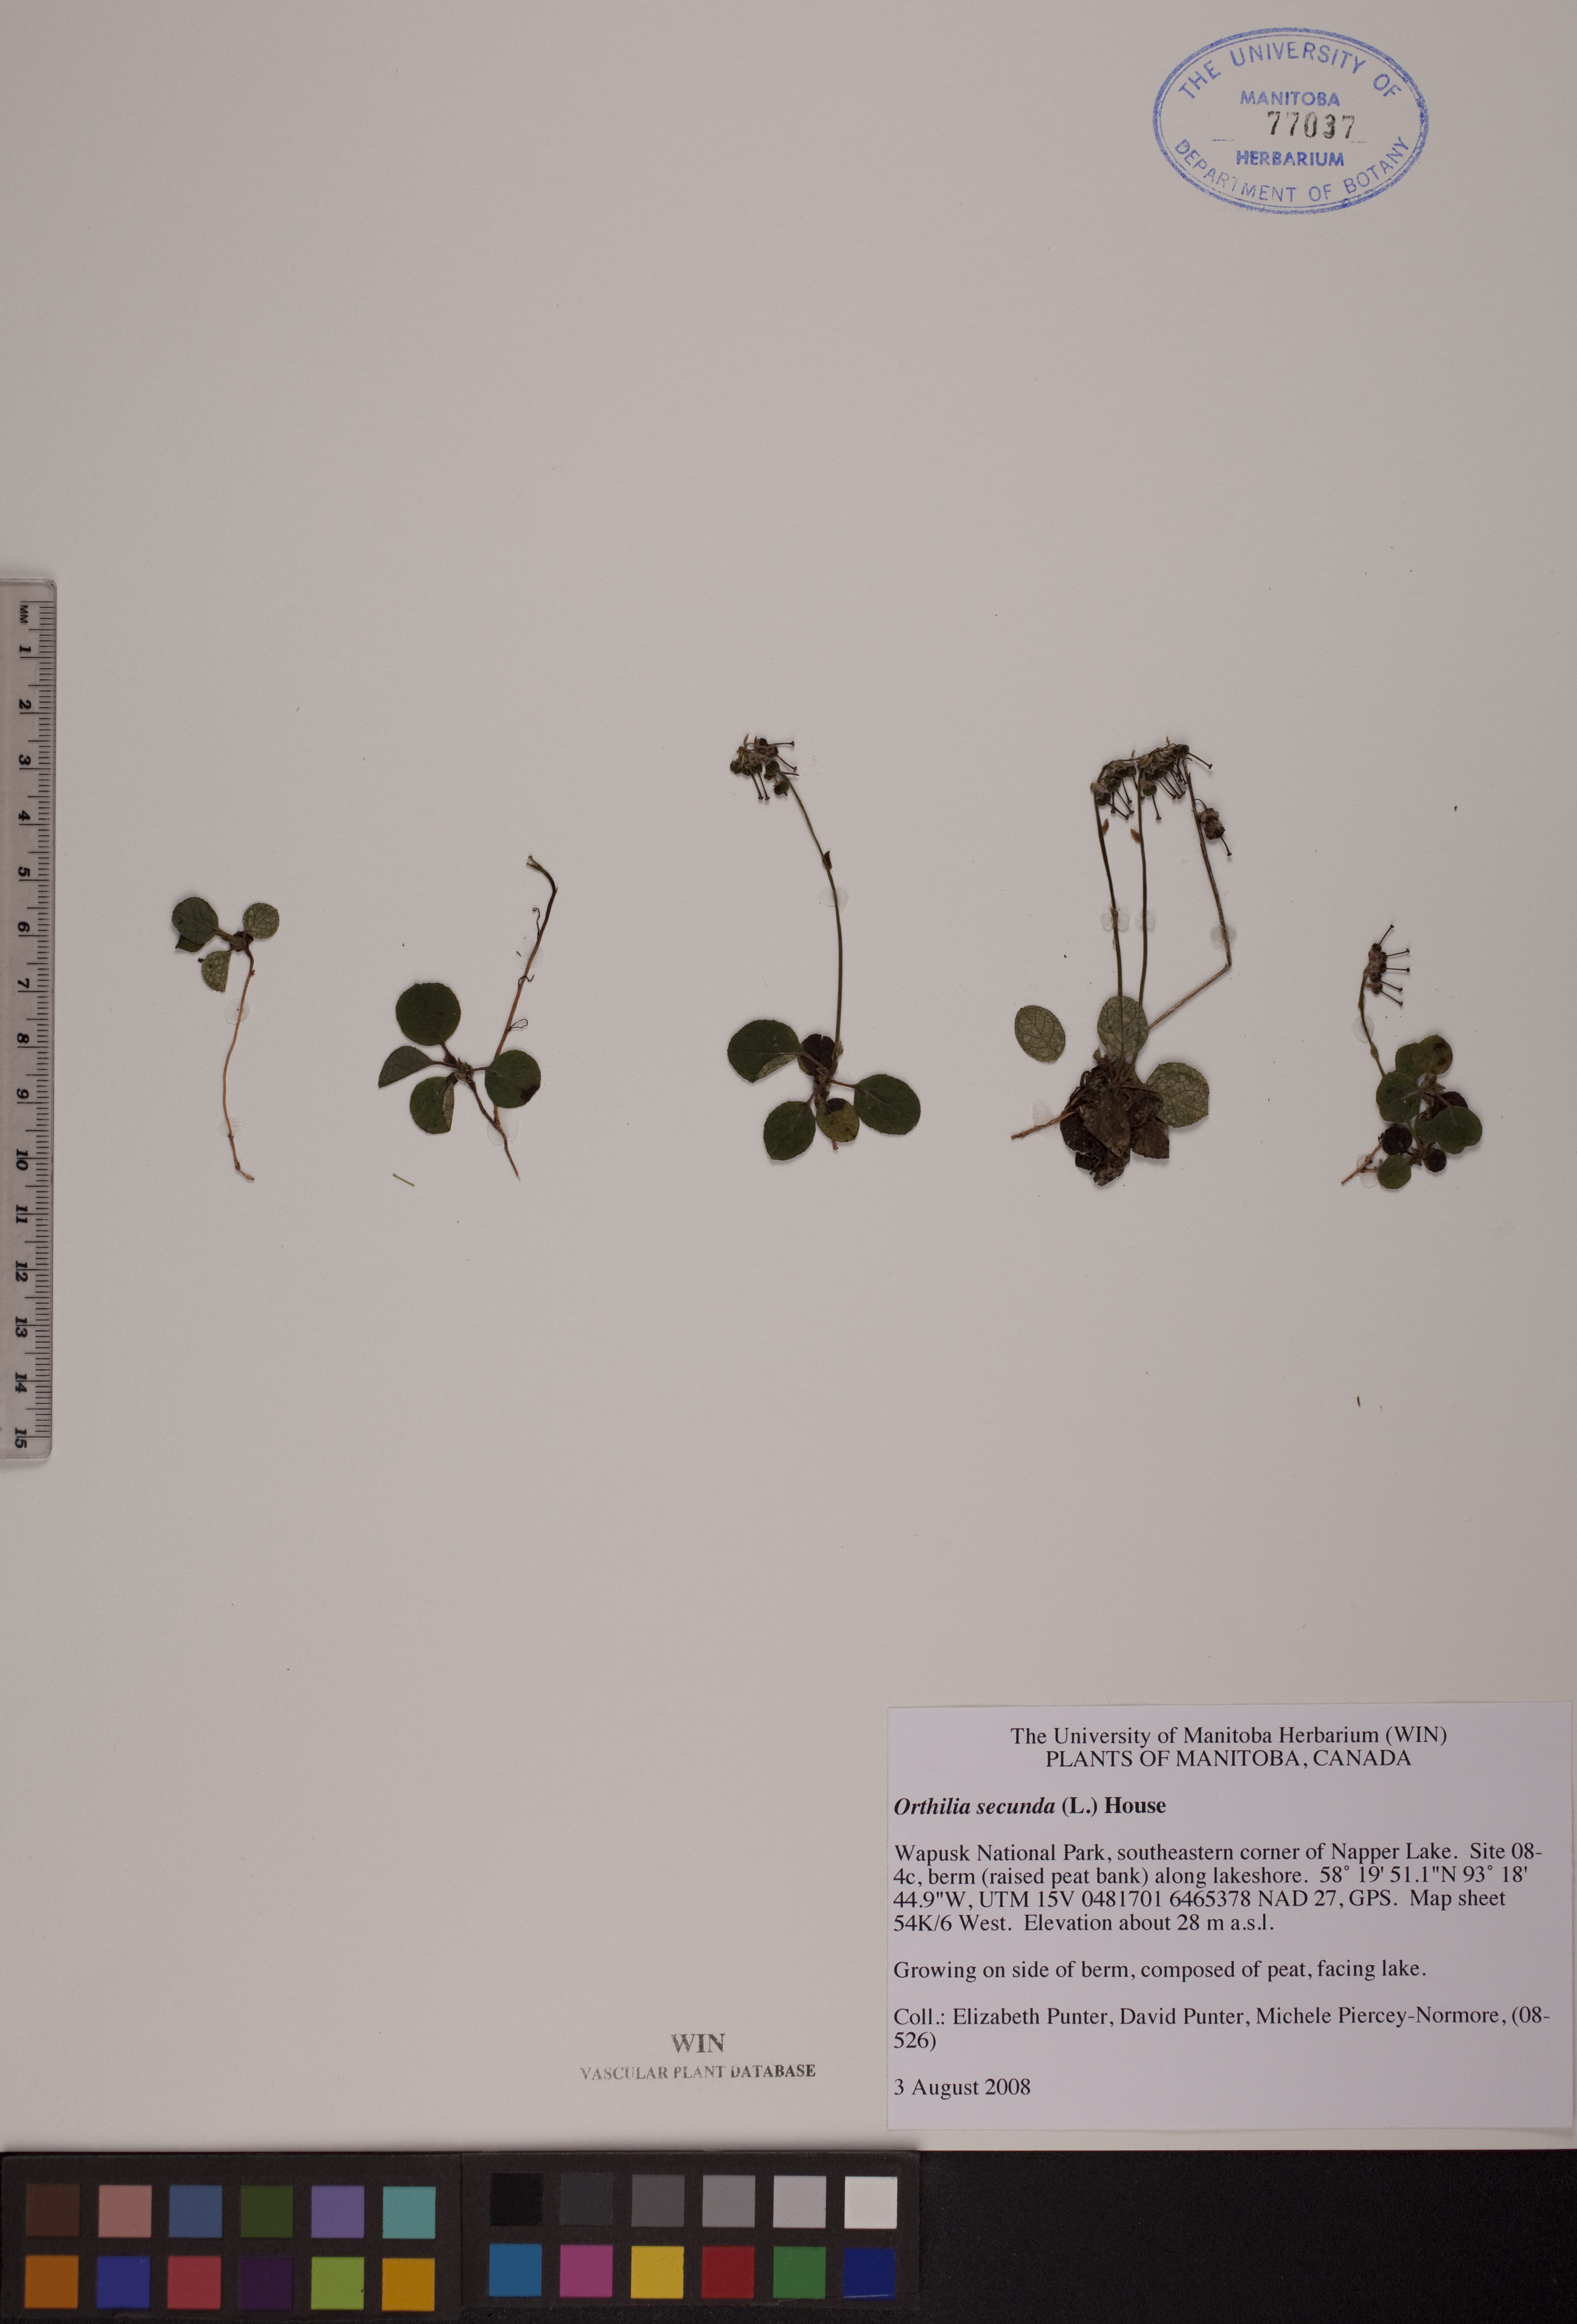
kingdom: Plantae
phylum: Tracheophyta
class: Magnoliopsida
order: Ericales
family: Ericaceae
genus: Orthilia
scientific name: Orthilia secunda
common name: One-sided orthilia
